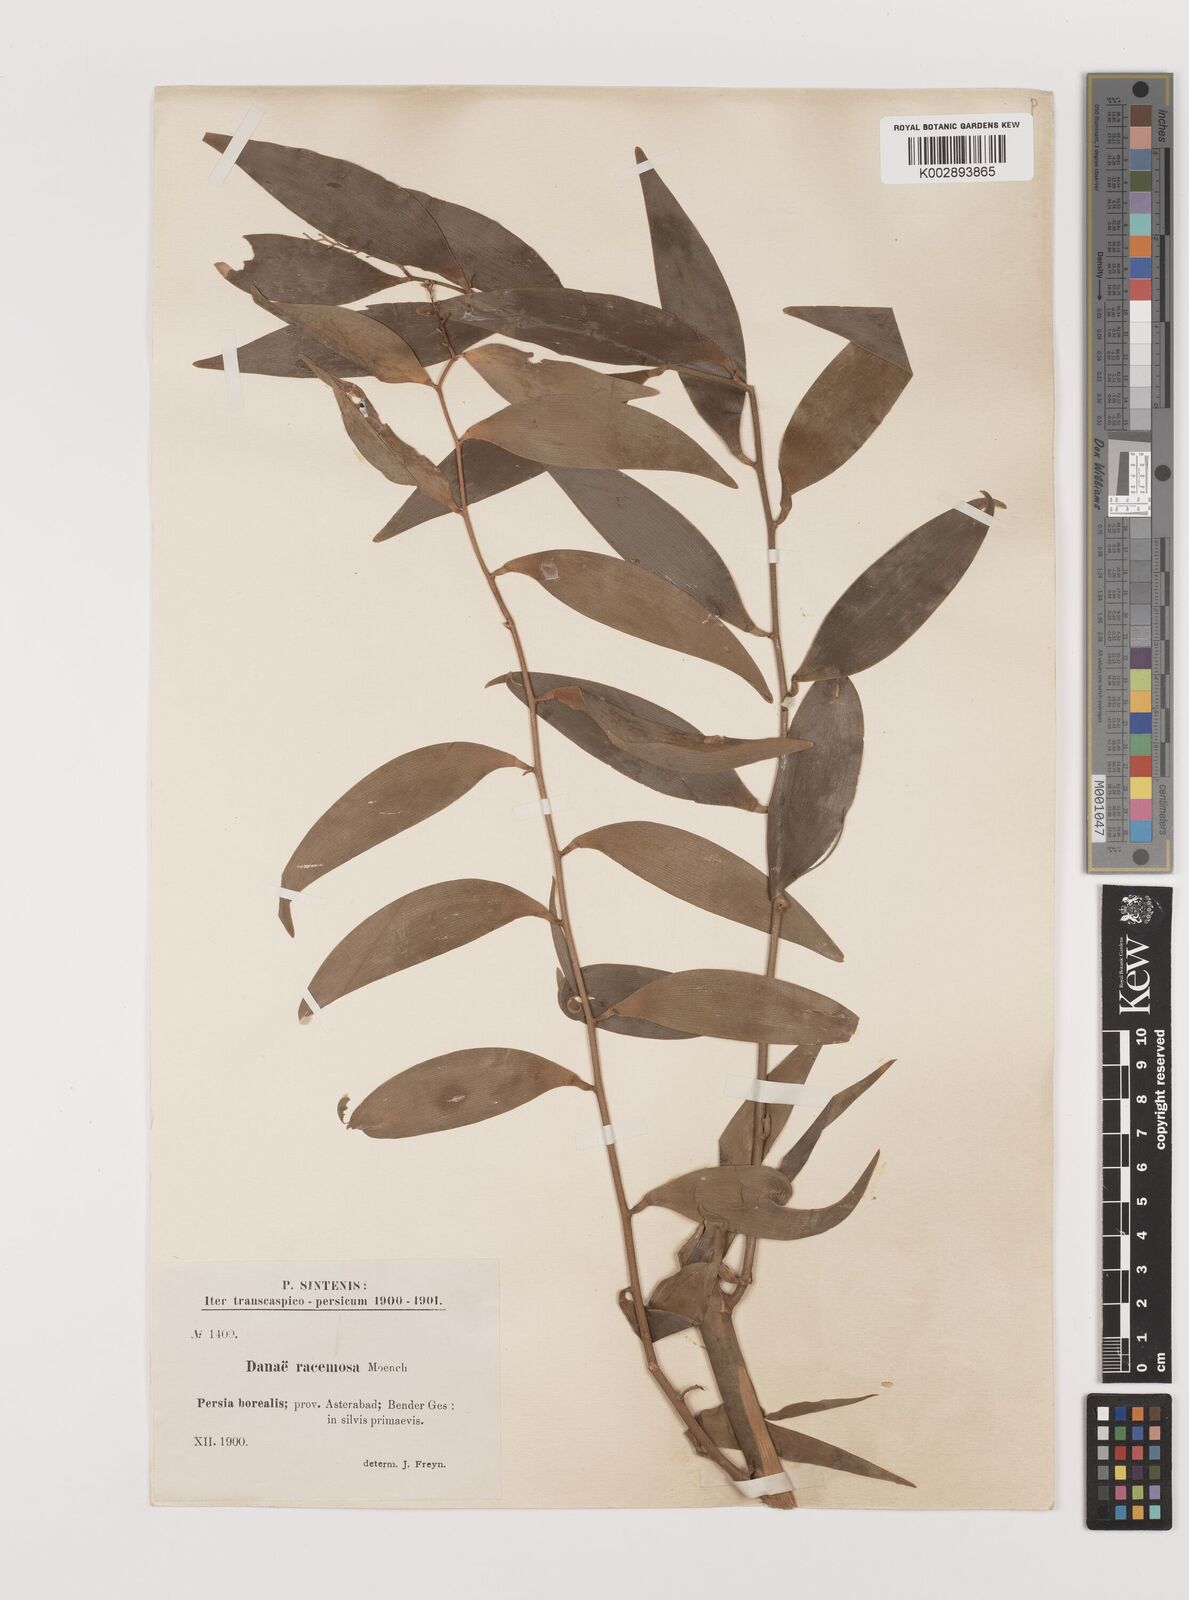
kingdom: Plantae
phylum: Tracheophyta
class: Liliopsida
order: Asparagales
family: Asparagaceae
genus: Danae
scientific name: Danae racemosa
